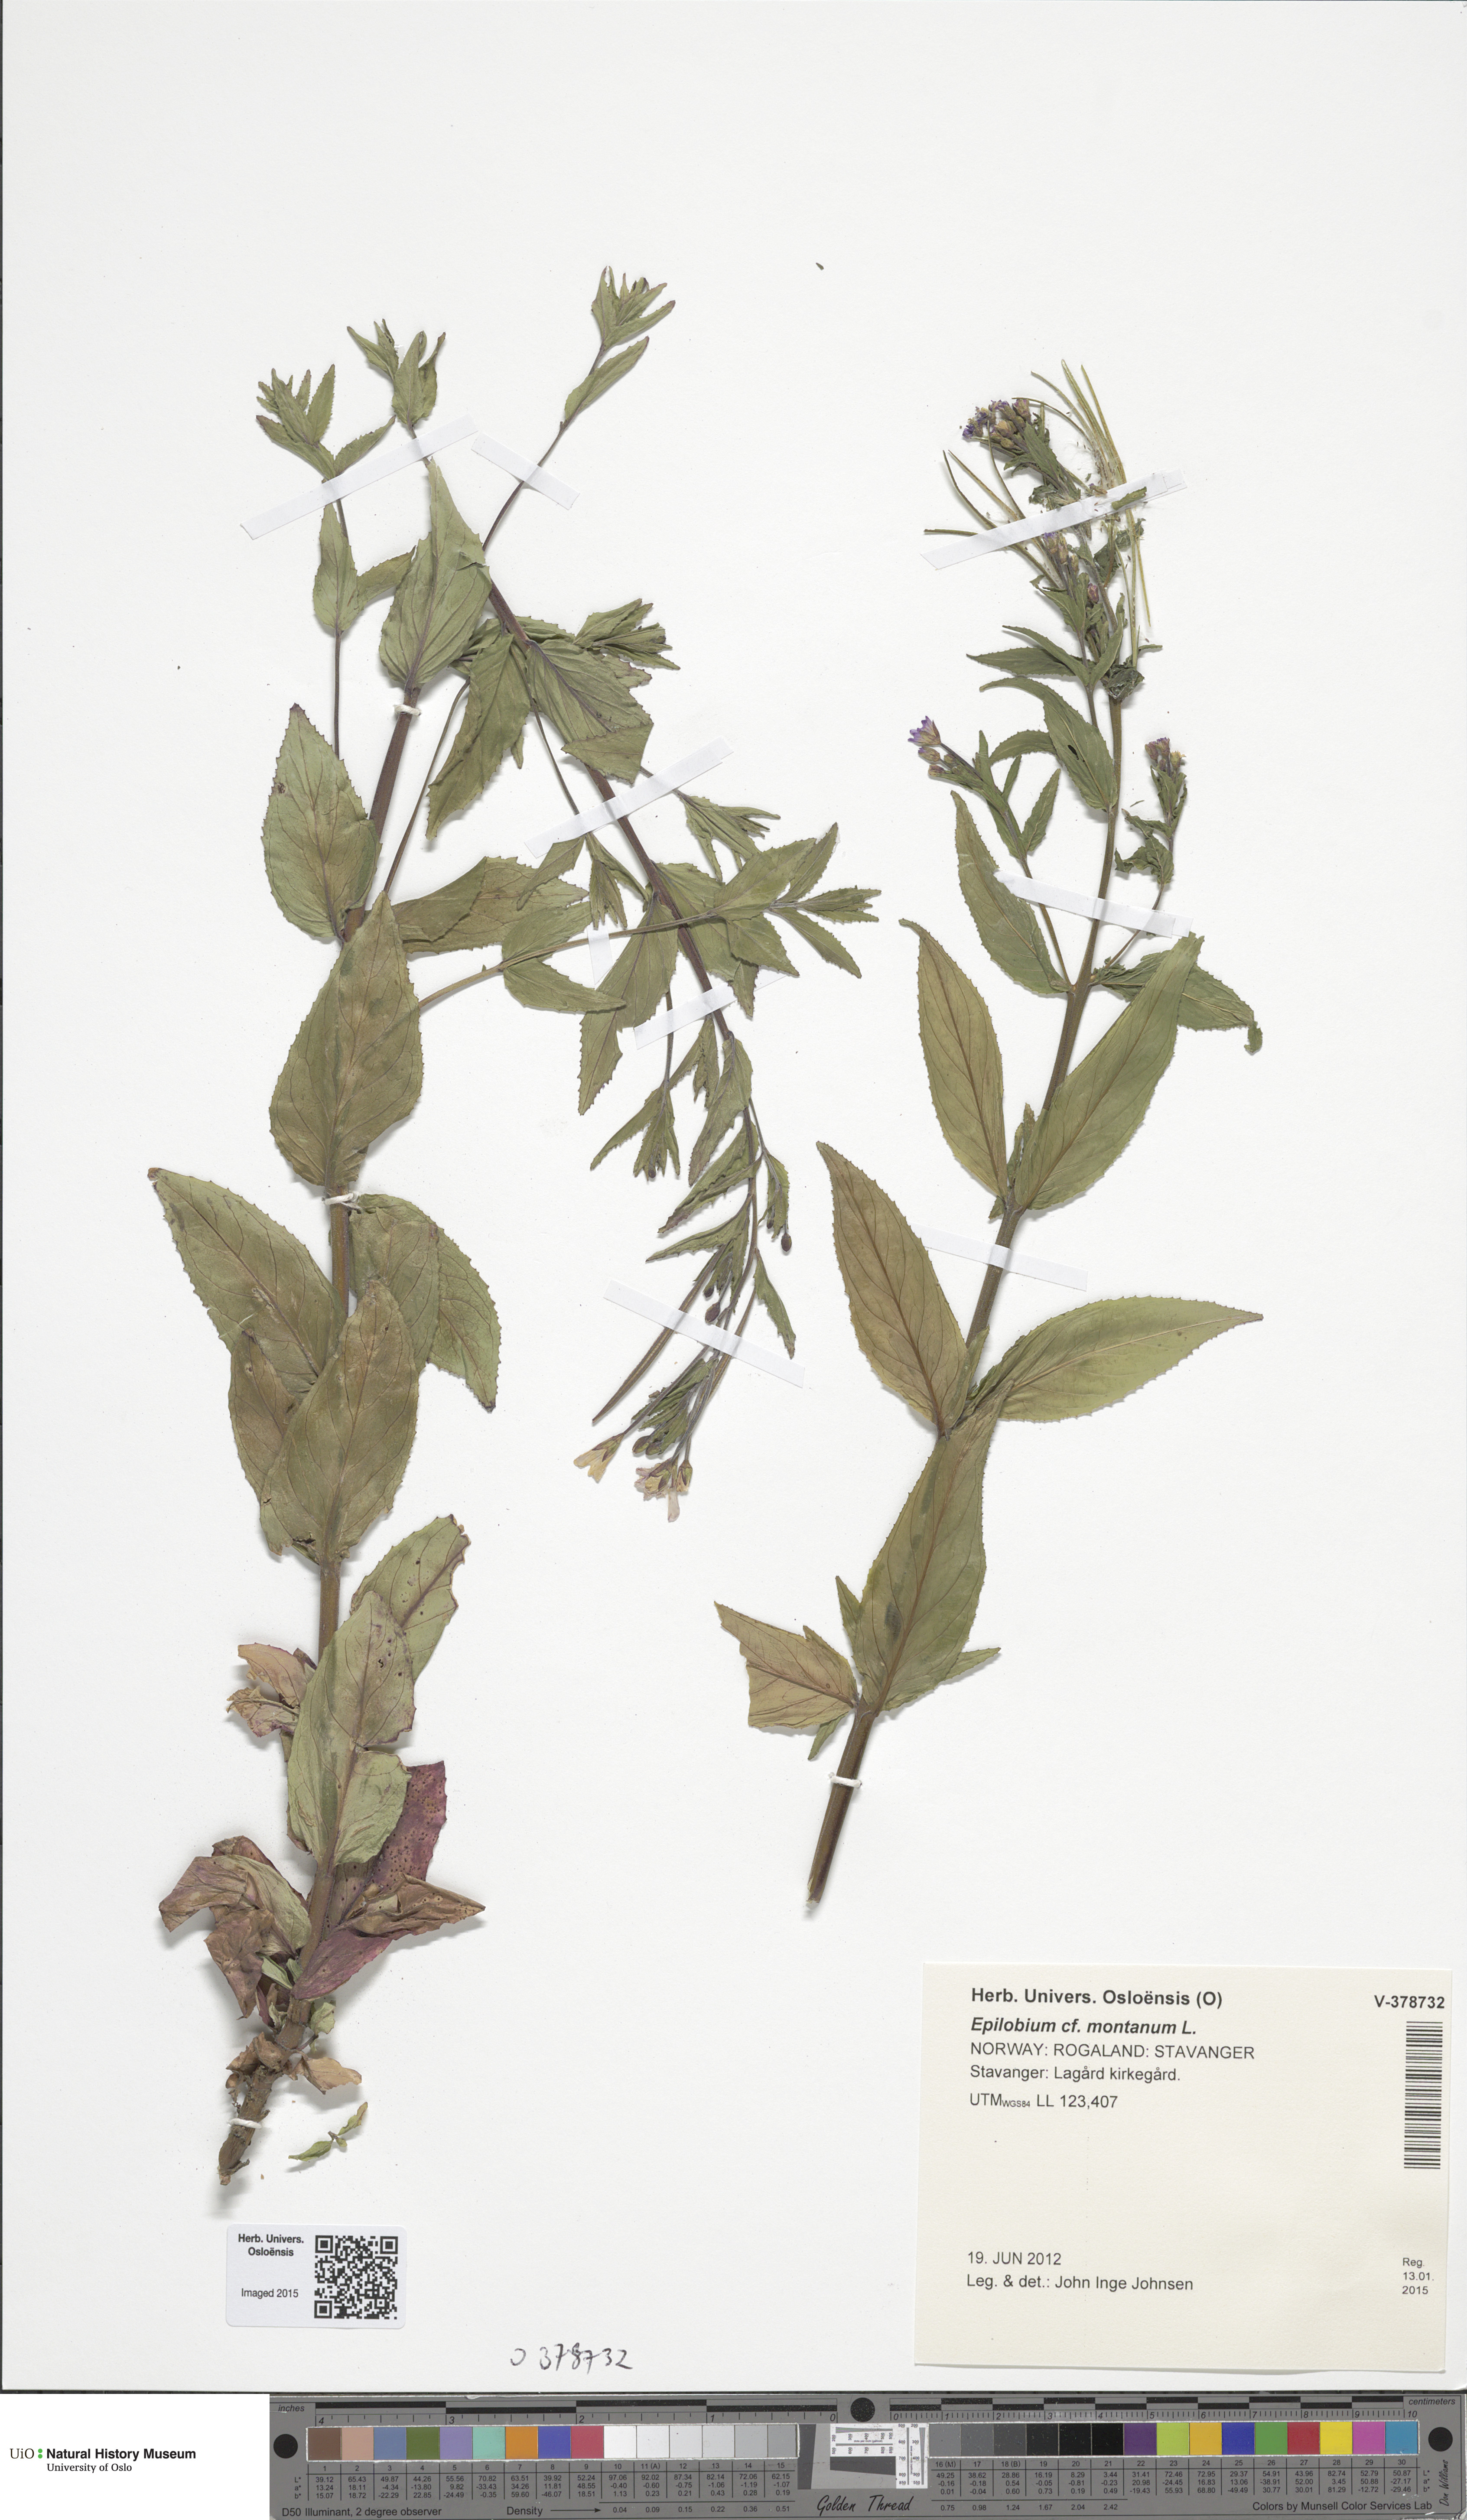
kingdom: Plantae
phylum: Tracheophyta
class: Magnoliopsida
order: Myrtales
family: Onagraceae
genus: Epilobium
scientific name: Epilobium ciliatum
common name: American willowherb
